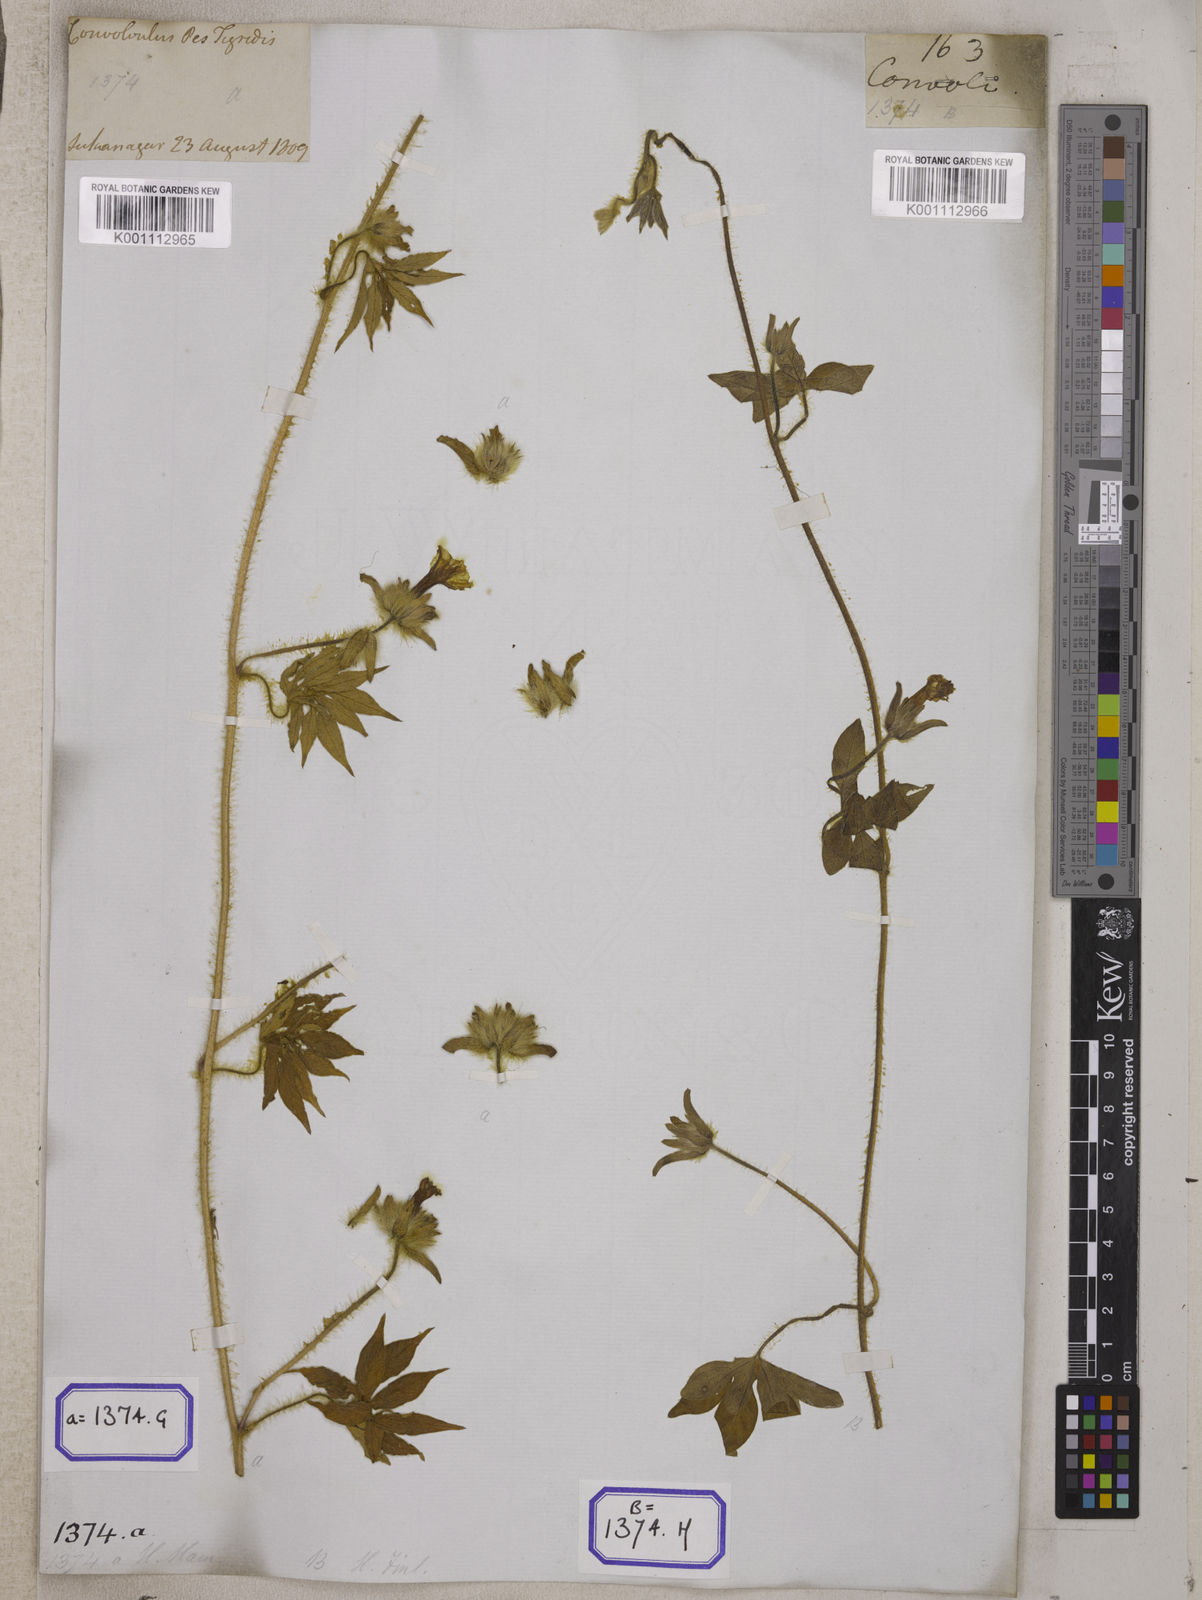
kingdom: Plantae
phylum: Tracheophyta
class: Magnoliopsida
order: Solanales
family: Convolvulaceae
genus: Ipomoea
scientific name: Ipomoea pes-tigridis
